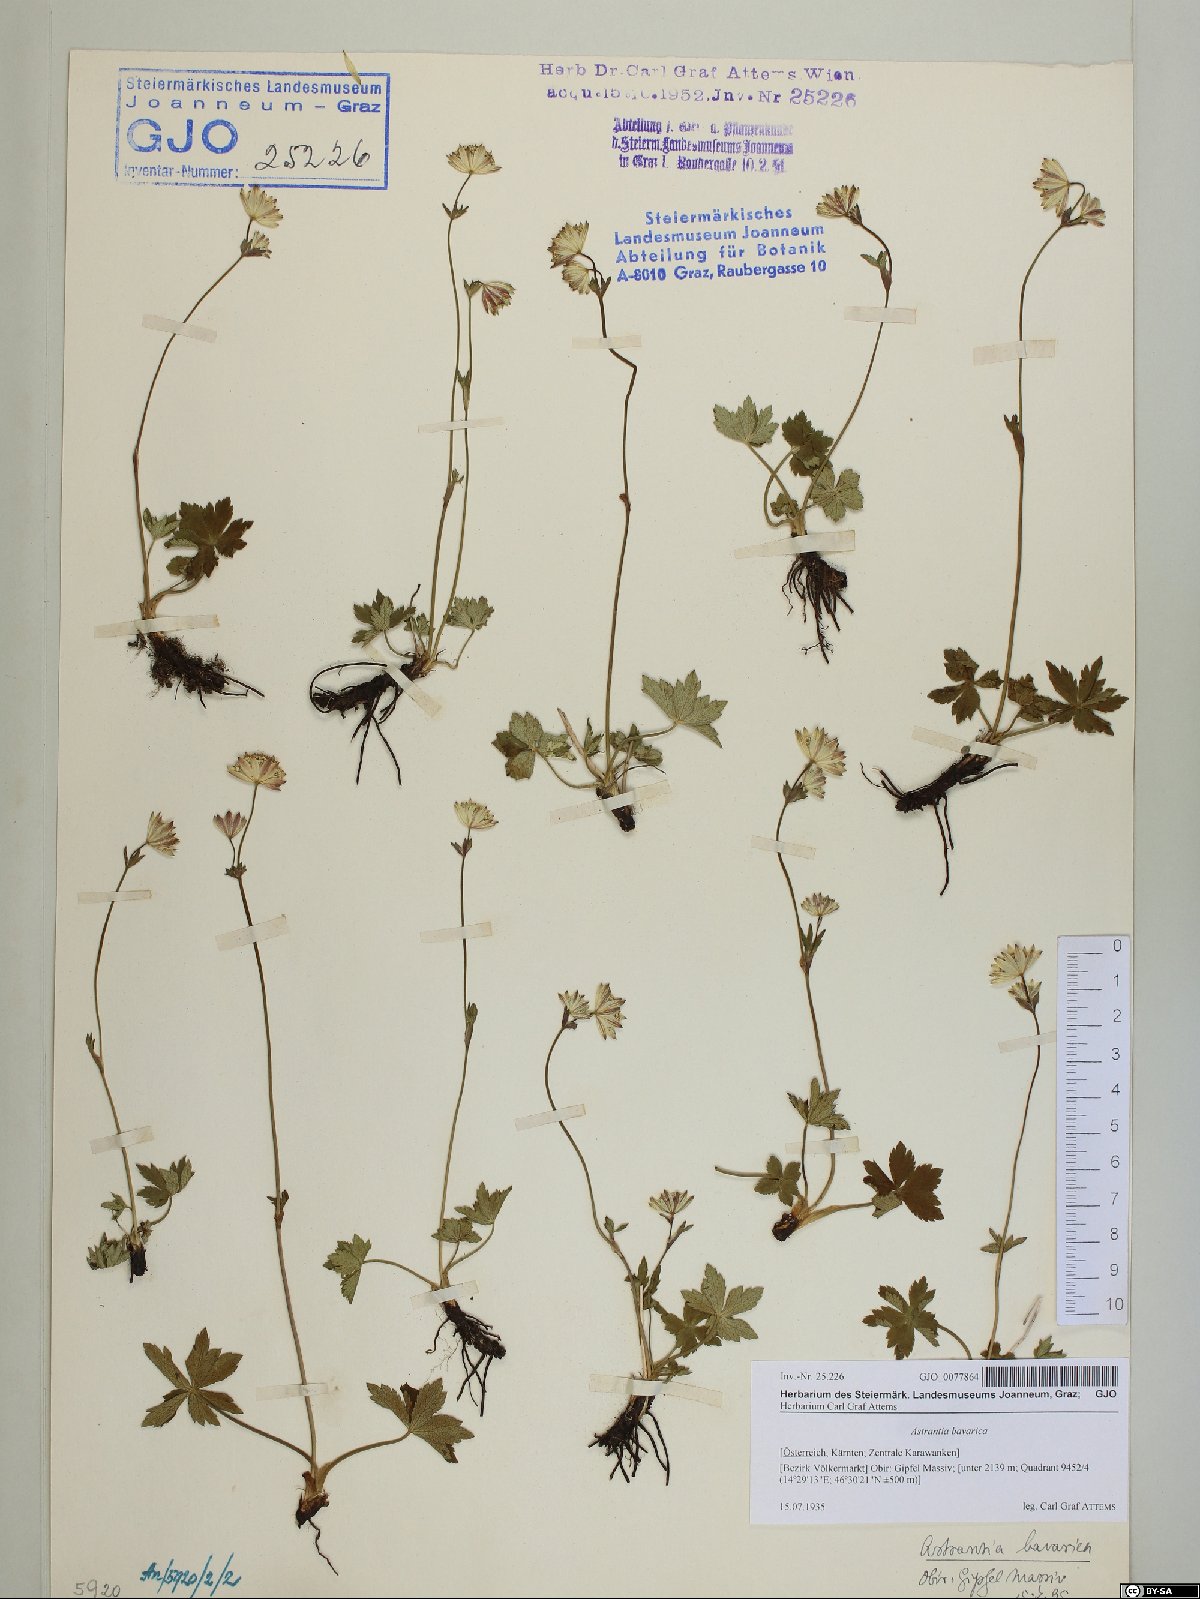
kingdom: Plantae
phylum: Tracheophyta
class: Magnoliopsida
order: Apiales
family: Apiaceae
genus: Astrantia
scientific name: Astrantia bavarica
